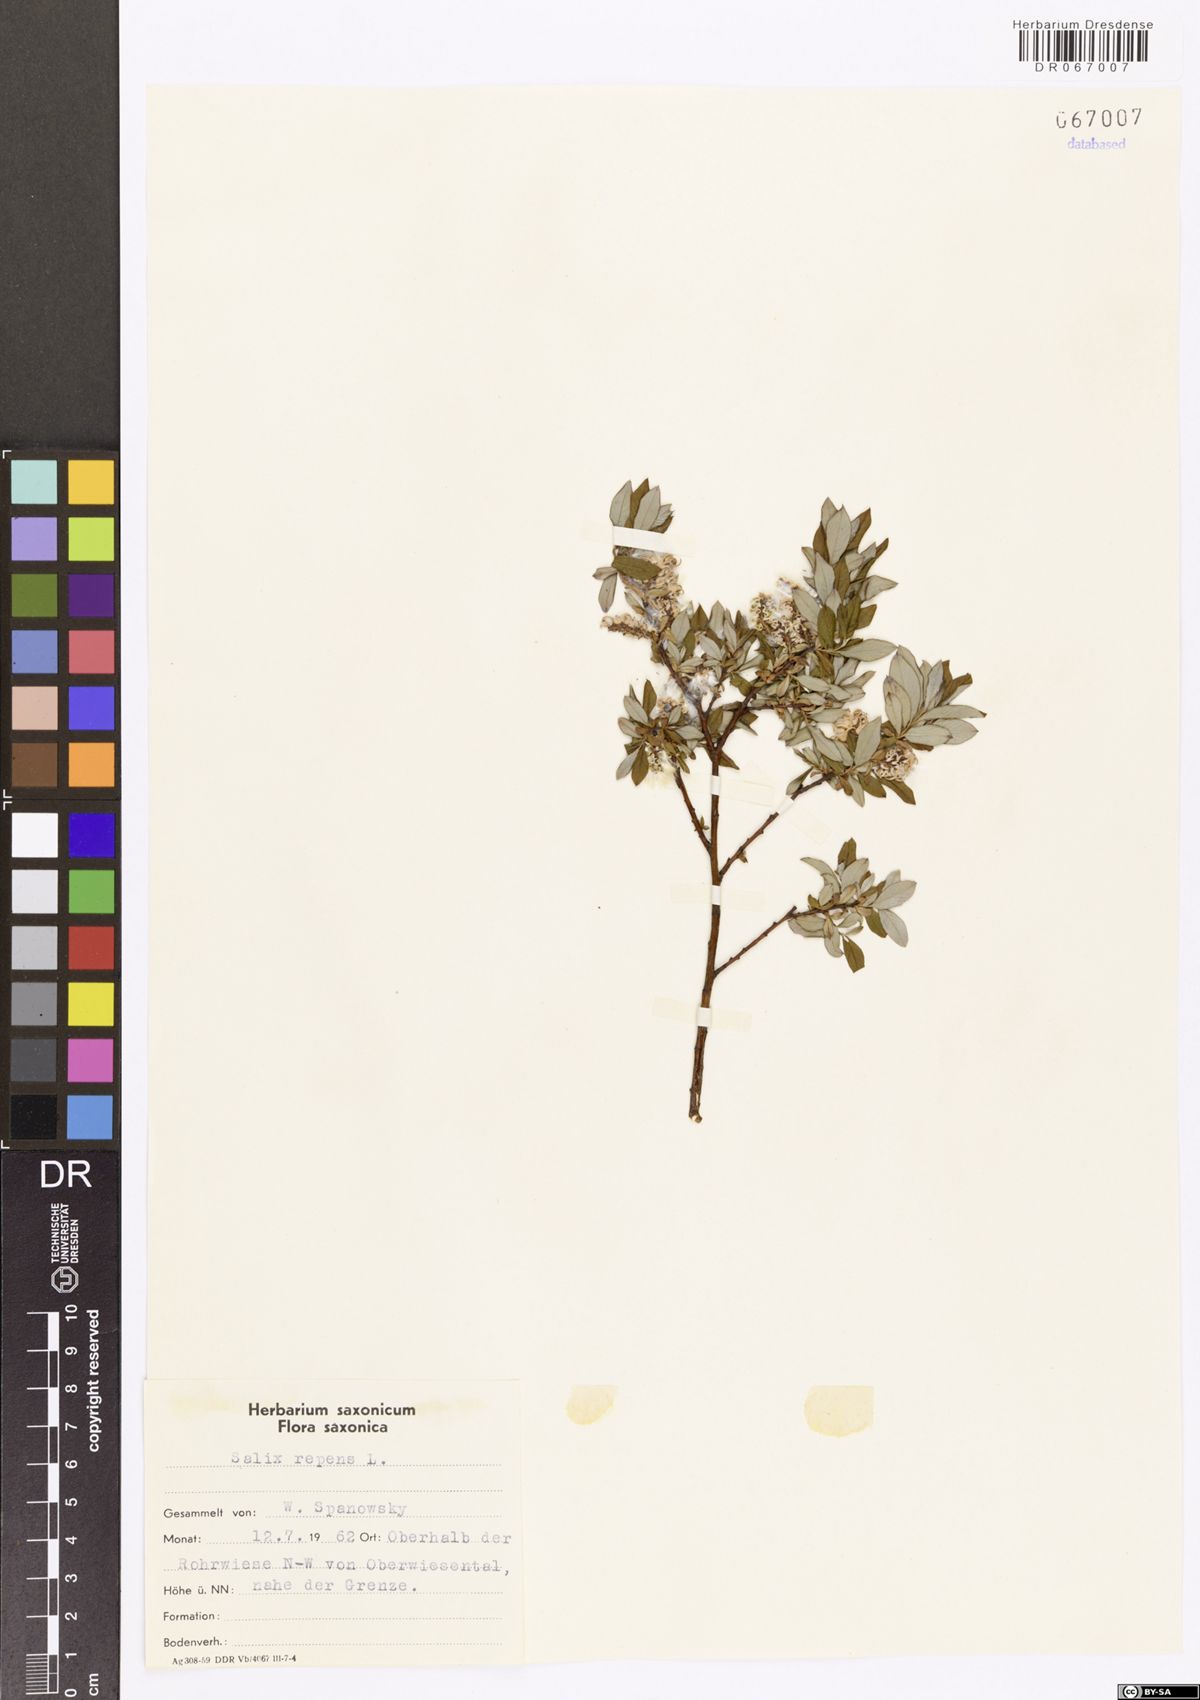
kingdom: Plantae
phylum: Tracheophyta
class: Magnoliopsida
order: Malpighiales
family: Salicaceae
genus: Salix
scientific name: Salix repens
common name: Creeping willow
